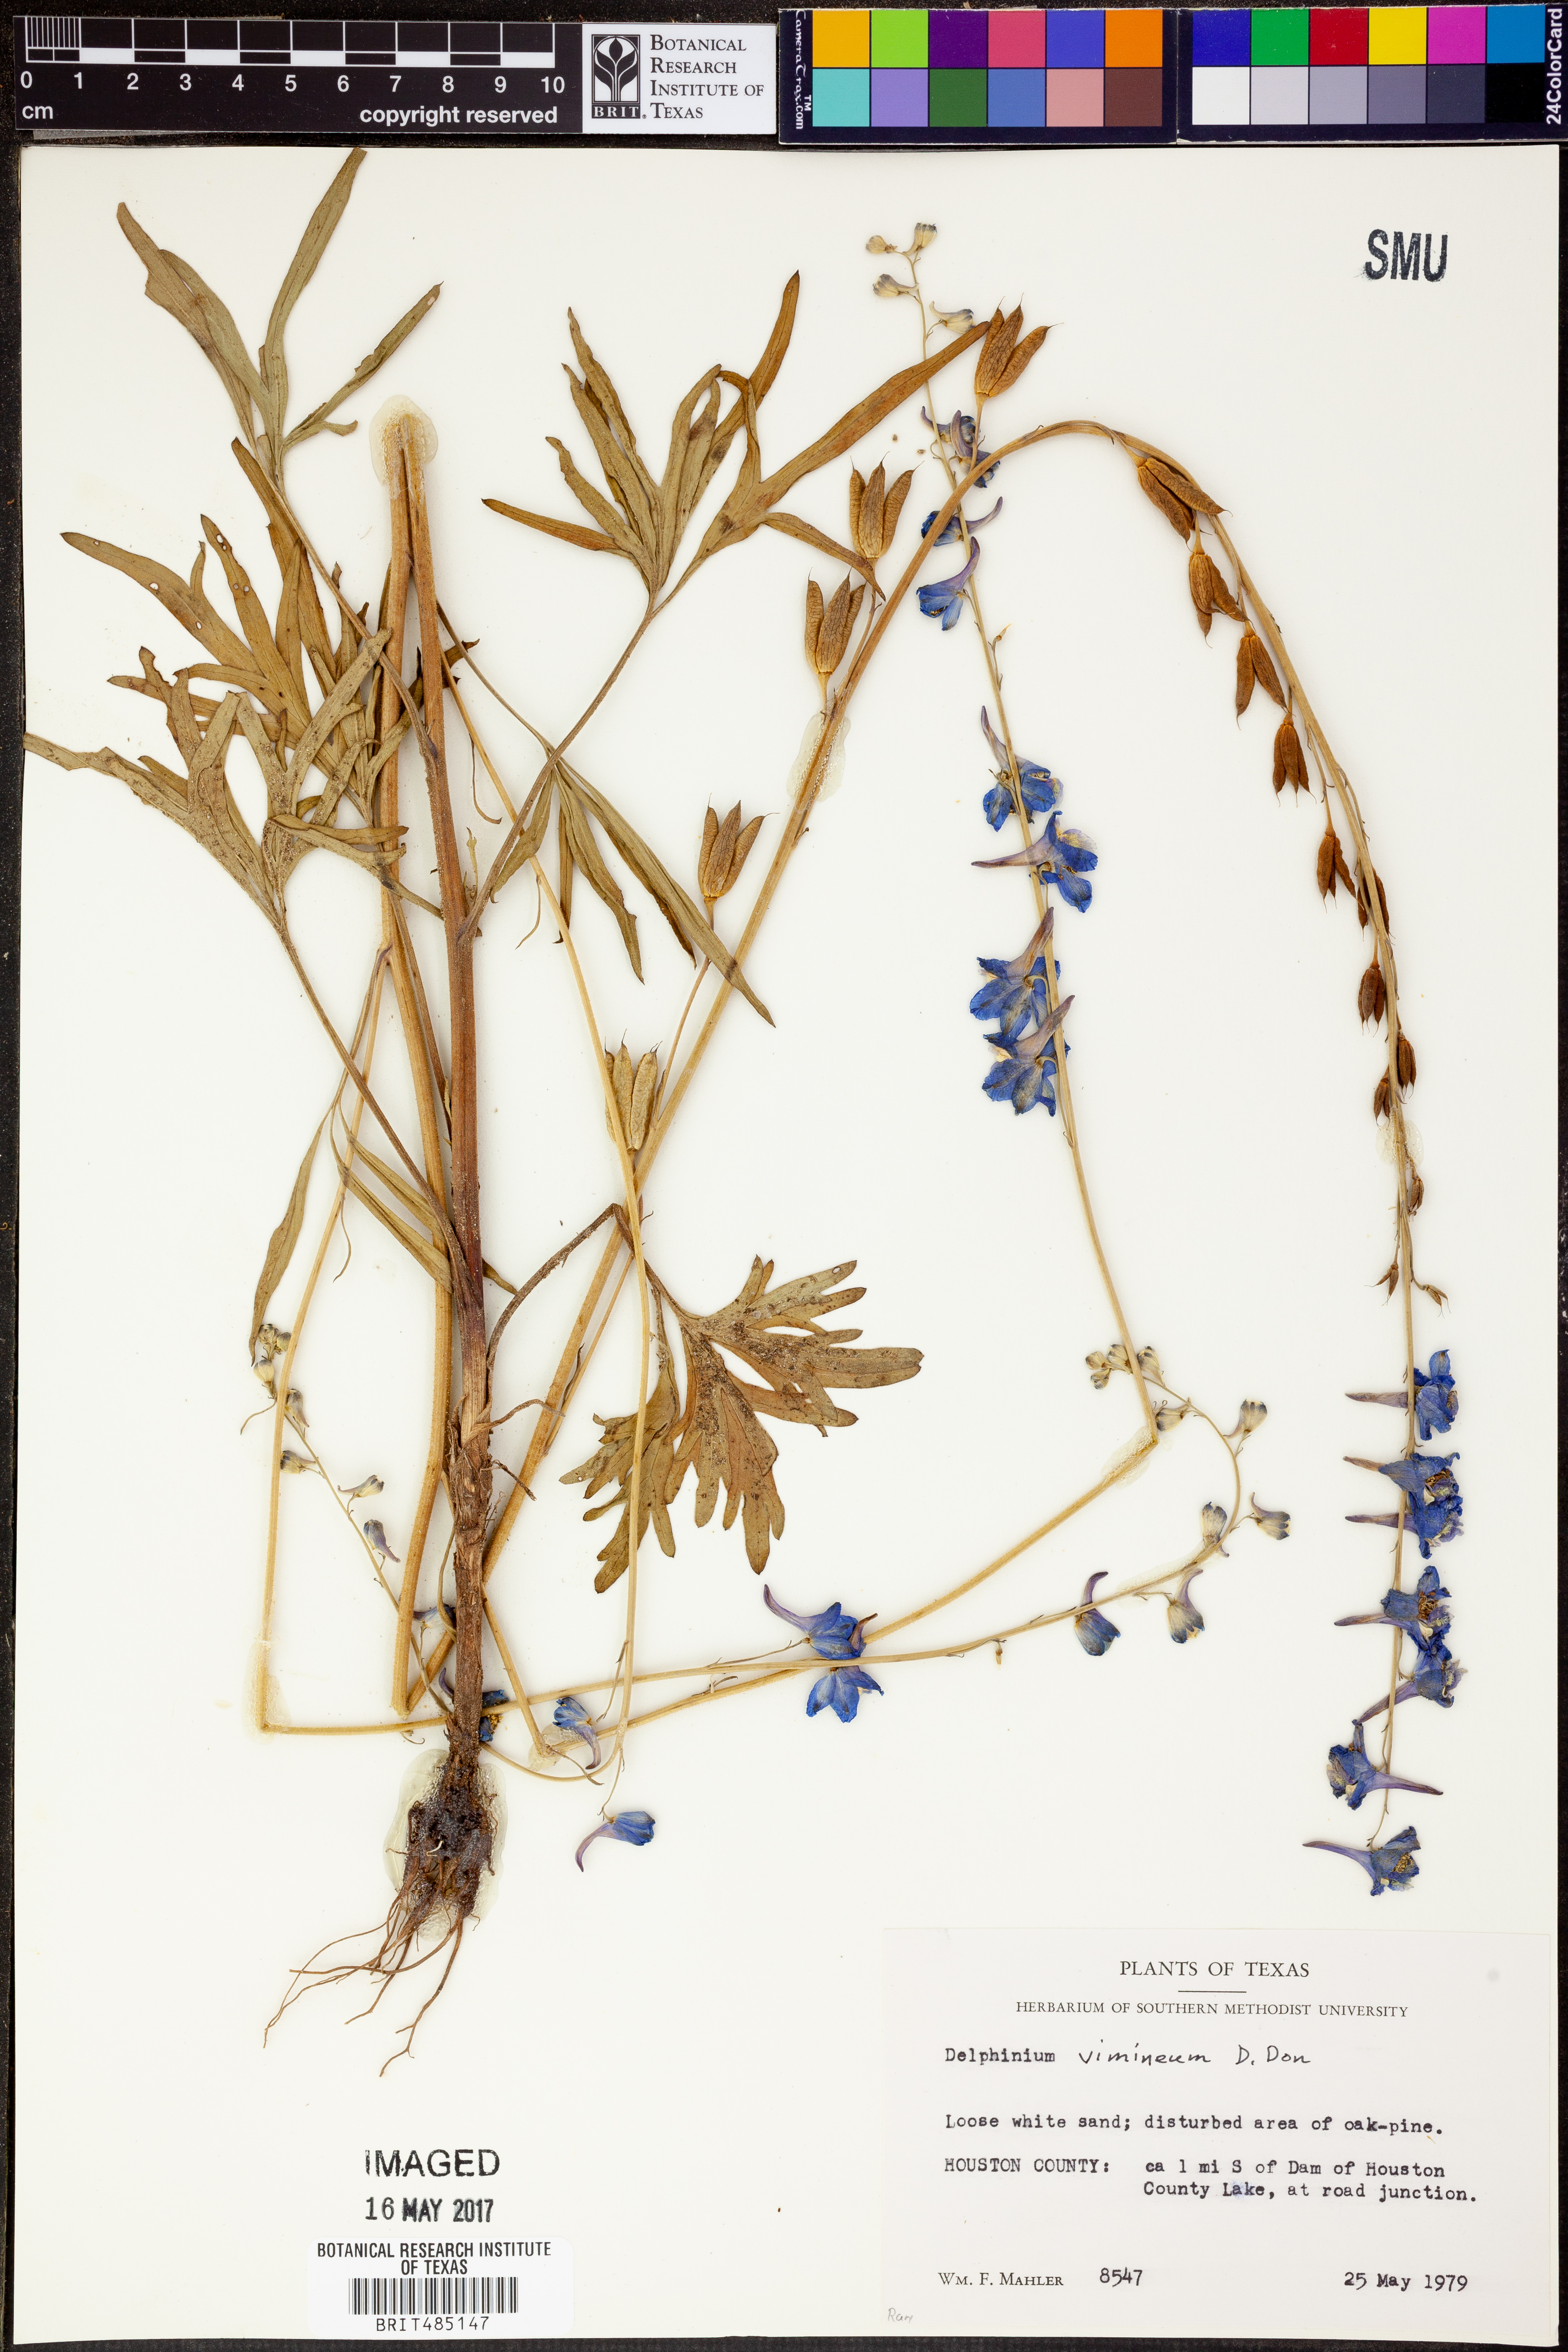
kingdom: Plantae
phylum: Tracheophyta
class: Magnoliopsida
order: Ranunculales
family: Ranunculaceae
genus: Delphinium
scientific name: Delphinium carolinianum
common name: Carolina larkspur
